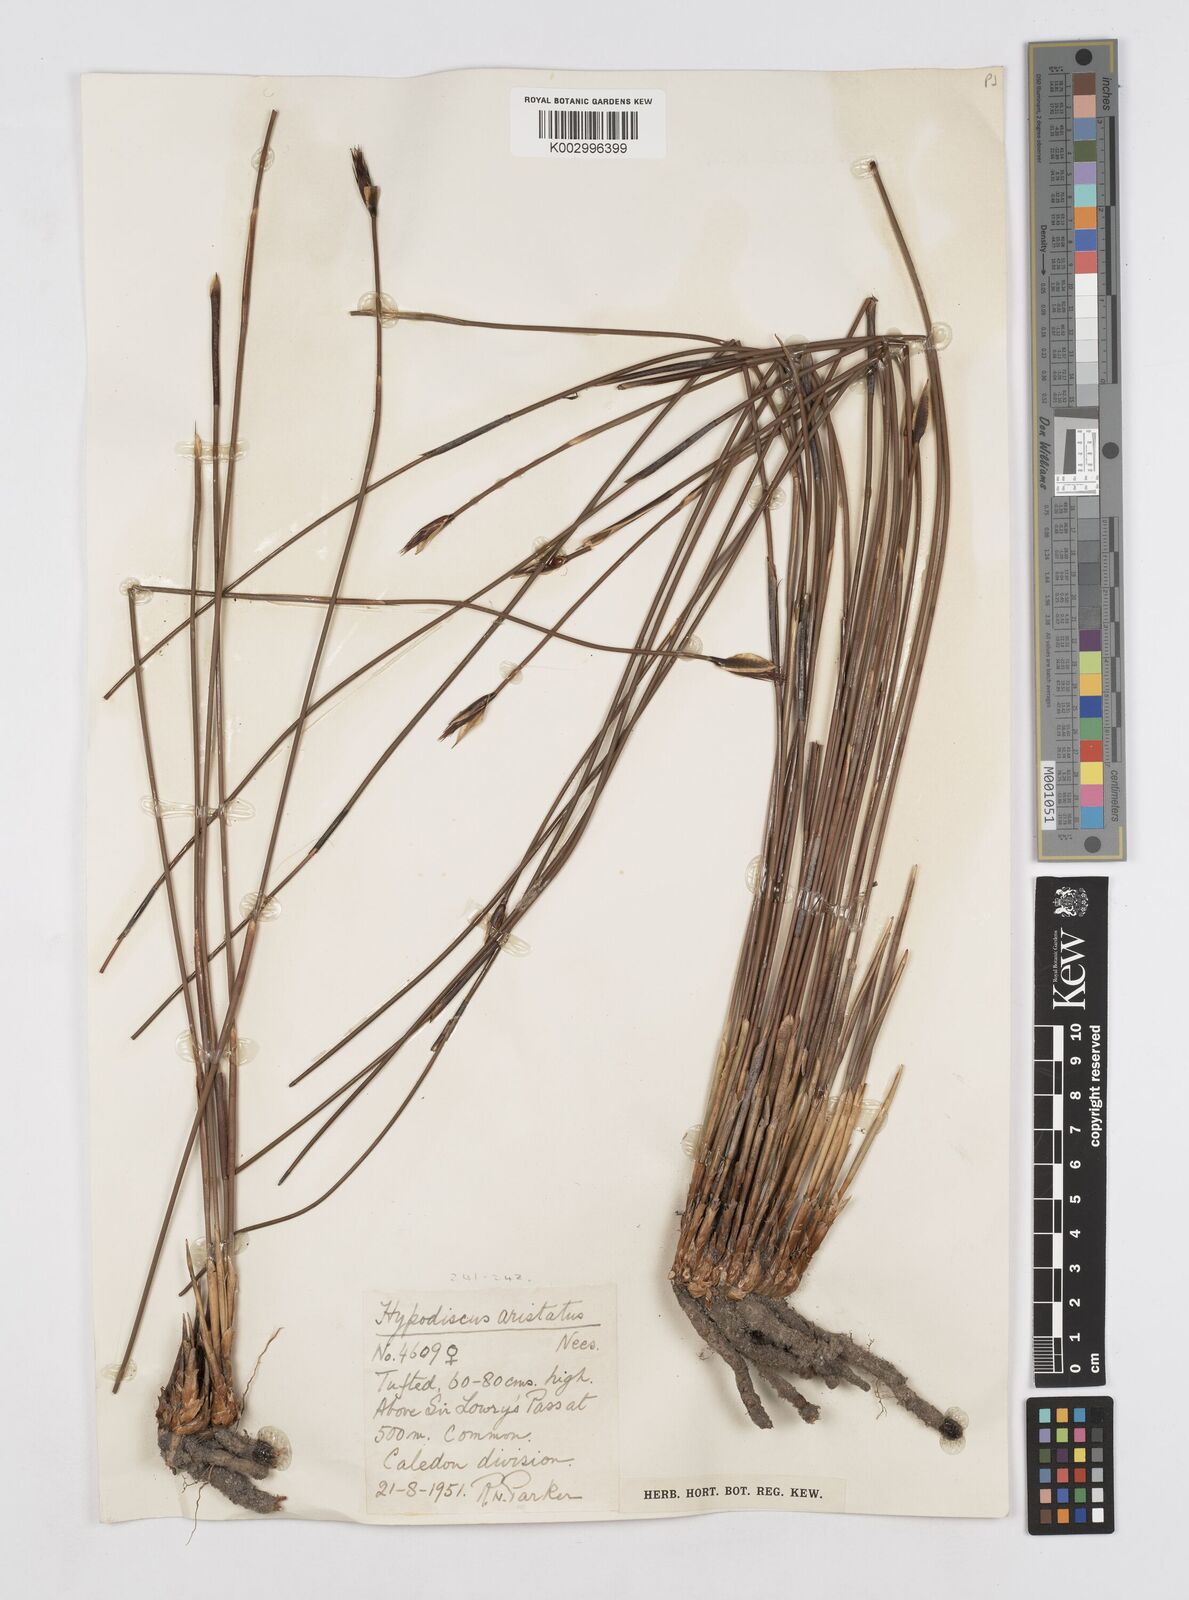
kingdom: Plantae
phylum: Tracheophyta
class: Liliopsida
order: Poales
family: Restionaceae
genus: Hypodiscus
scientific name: Hypodiscus aristatus
